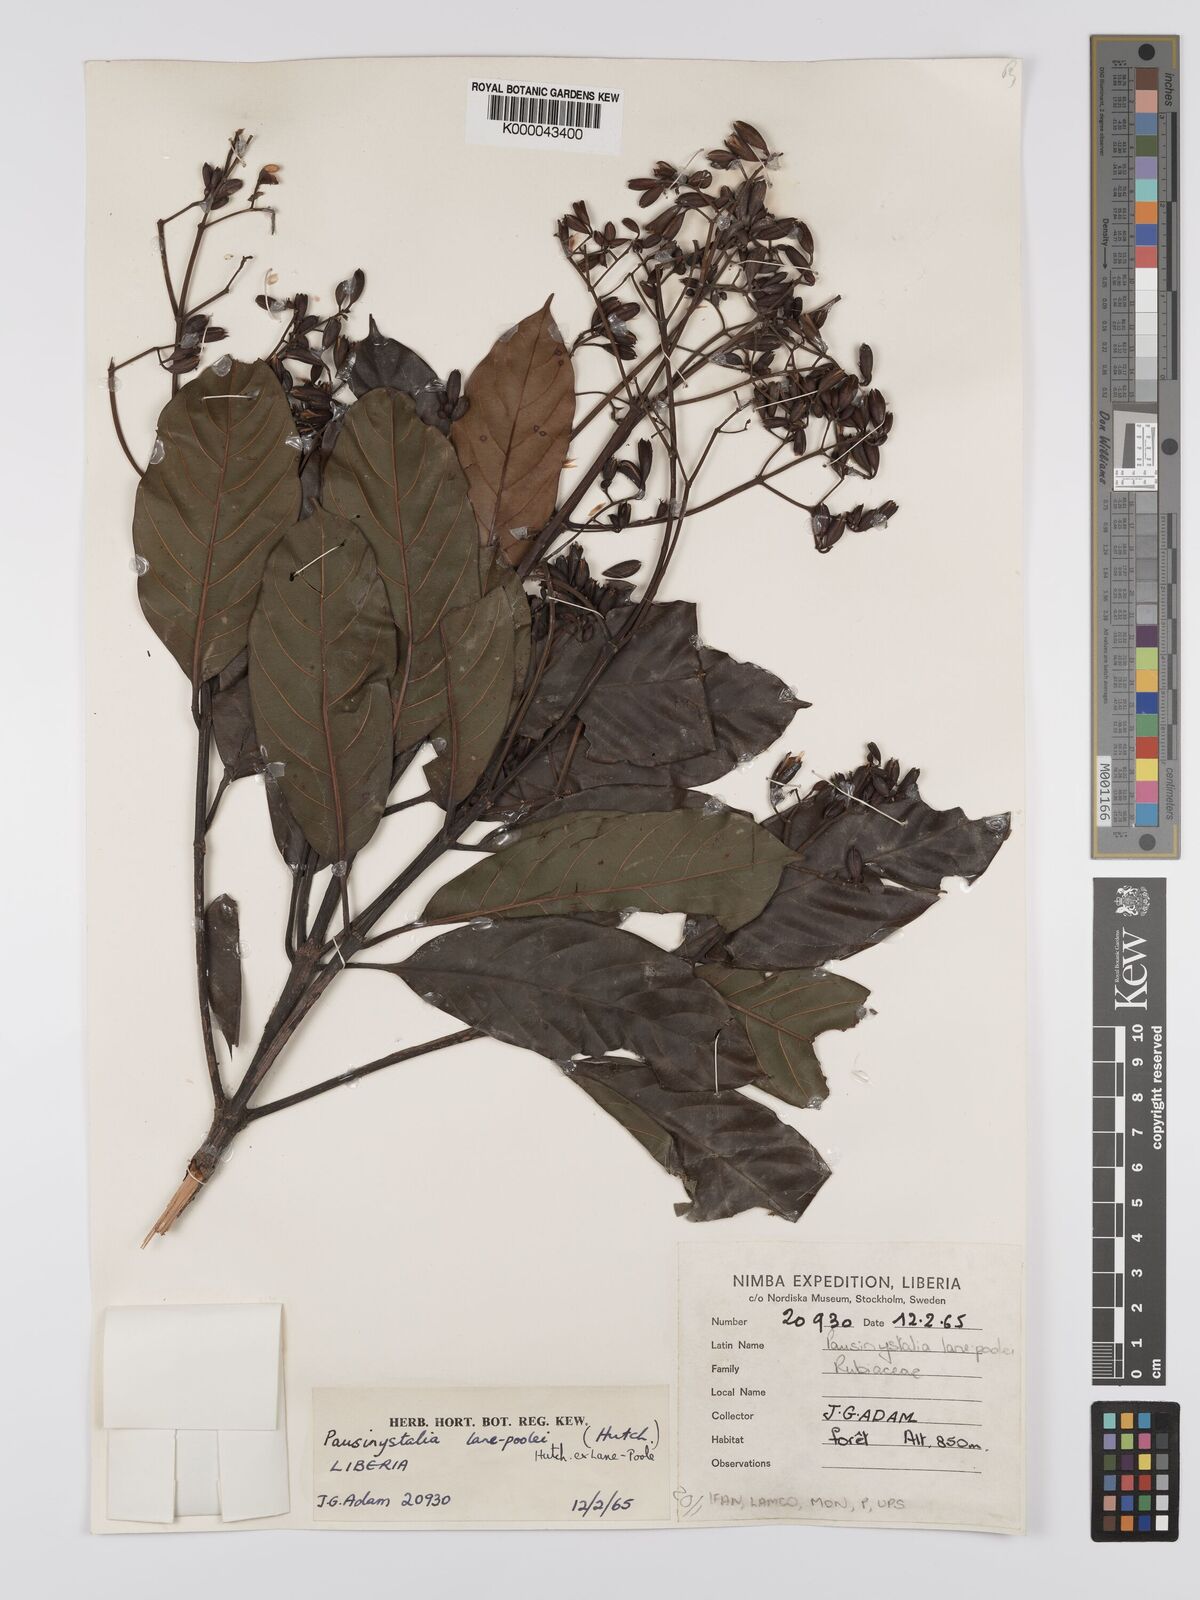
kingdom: Plantae
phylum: Tracheophyta
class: Magnoliopsida
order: Gentianales
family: Rubiaceae
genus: Corynanthe
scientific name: Corynanthe lane-poolei
